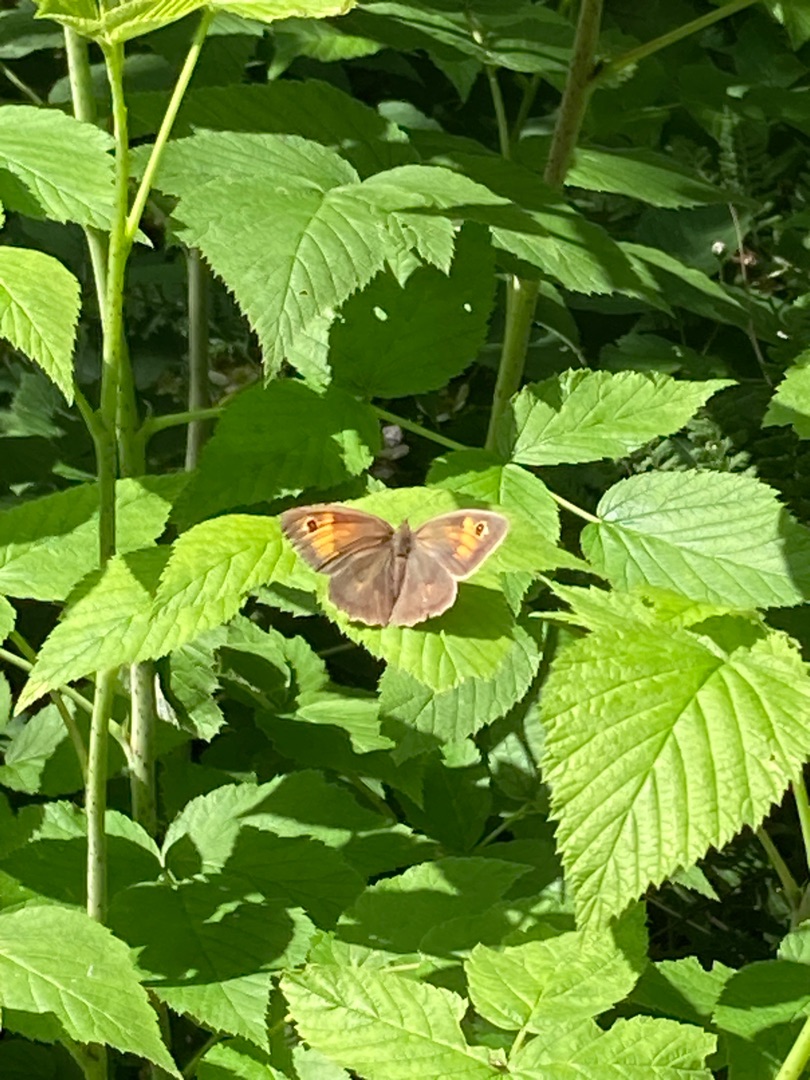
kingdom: Animalia
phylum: Arthropoda
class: Insecta
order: Lepidoptera
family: Nymphalidae
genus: Maniola
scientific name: Maniola jurtina
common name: Græsrandøje
